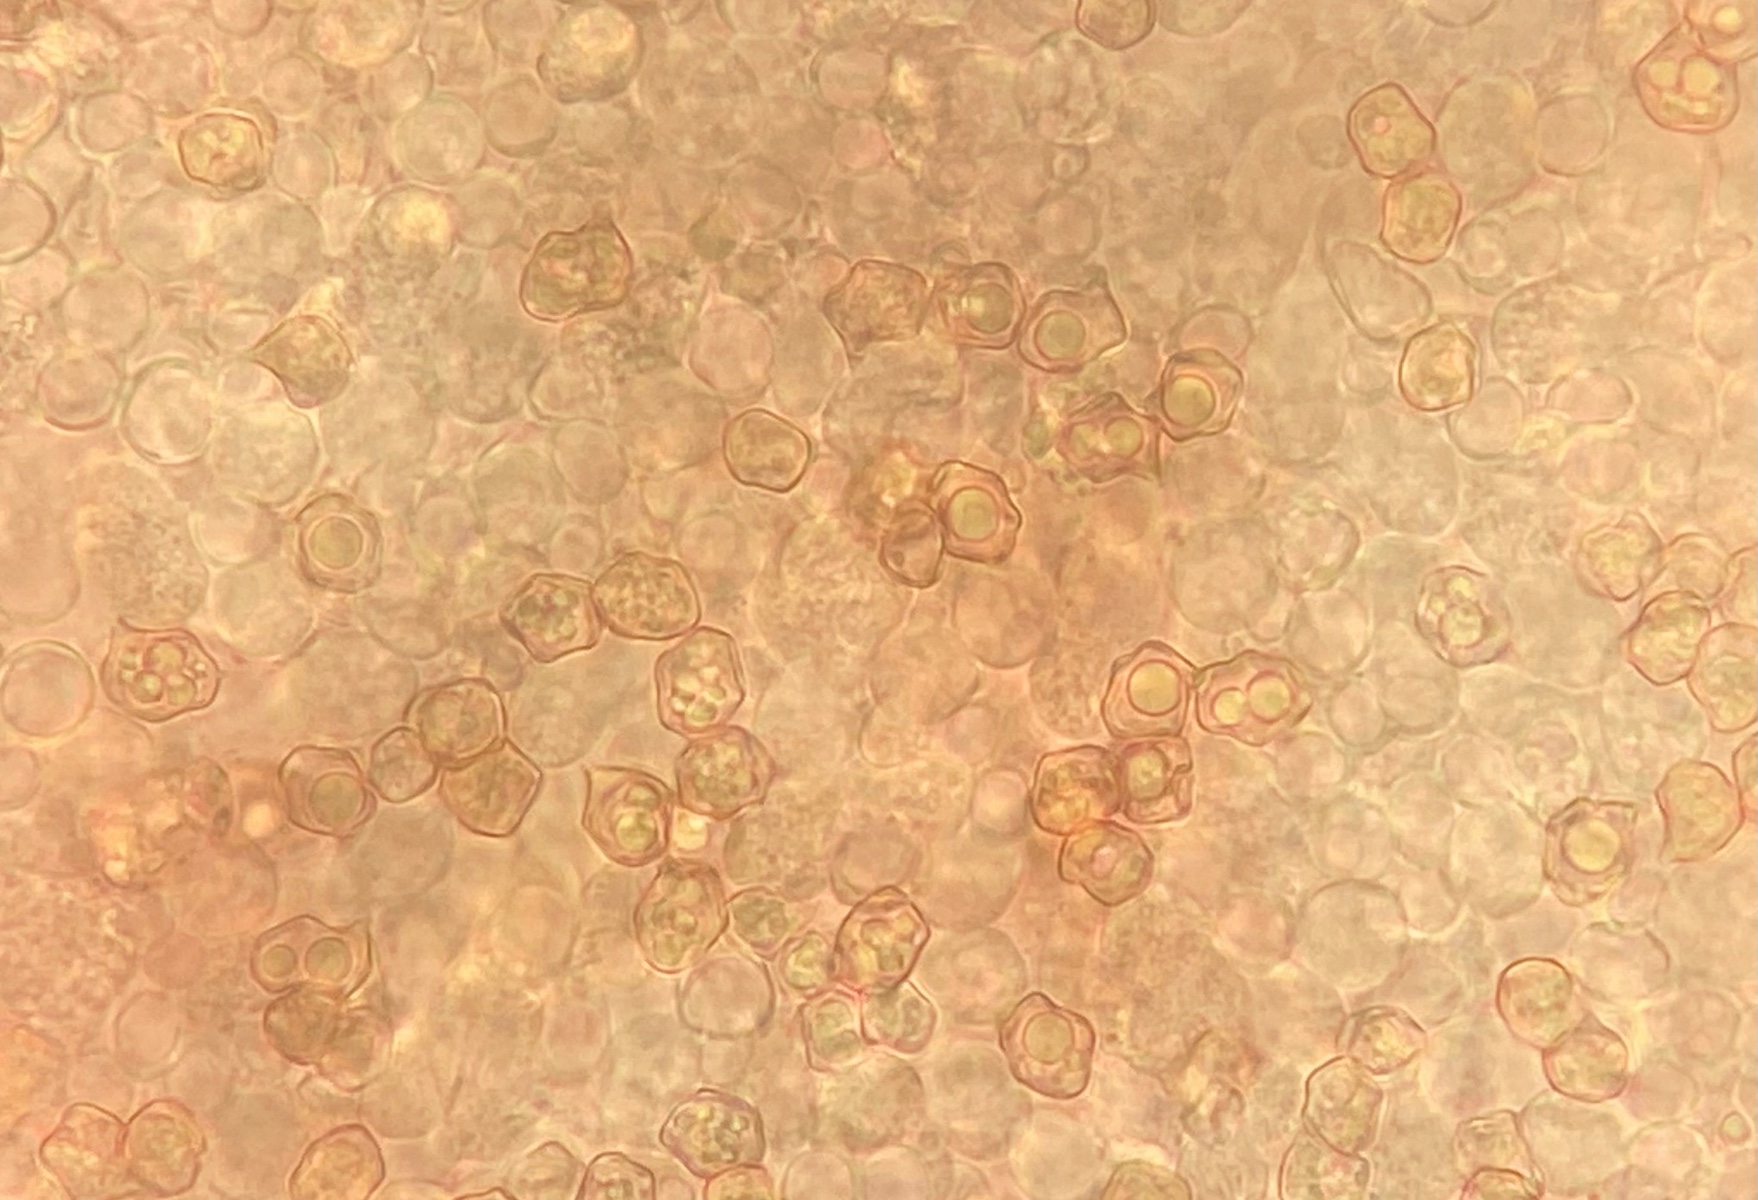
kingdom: Fungi
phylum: Basidiomycota
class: Agaricomycetes
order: Agaricales
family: Entolomataceae
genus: Entoloma
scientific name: Entoloma
